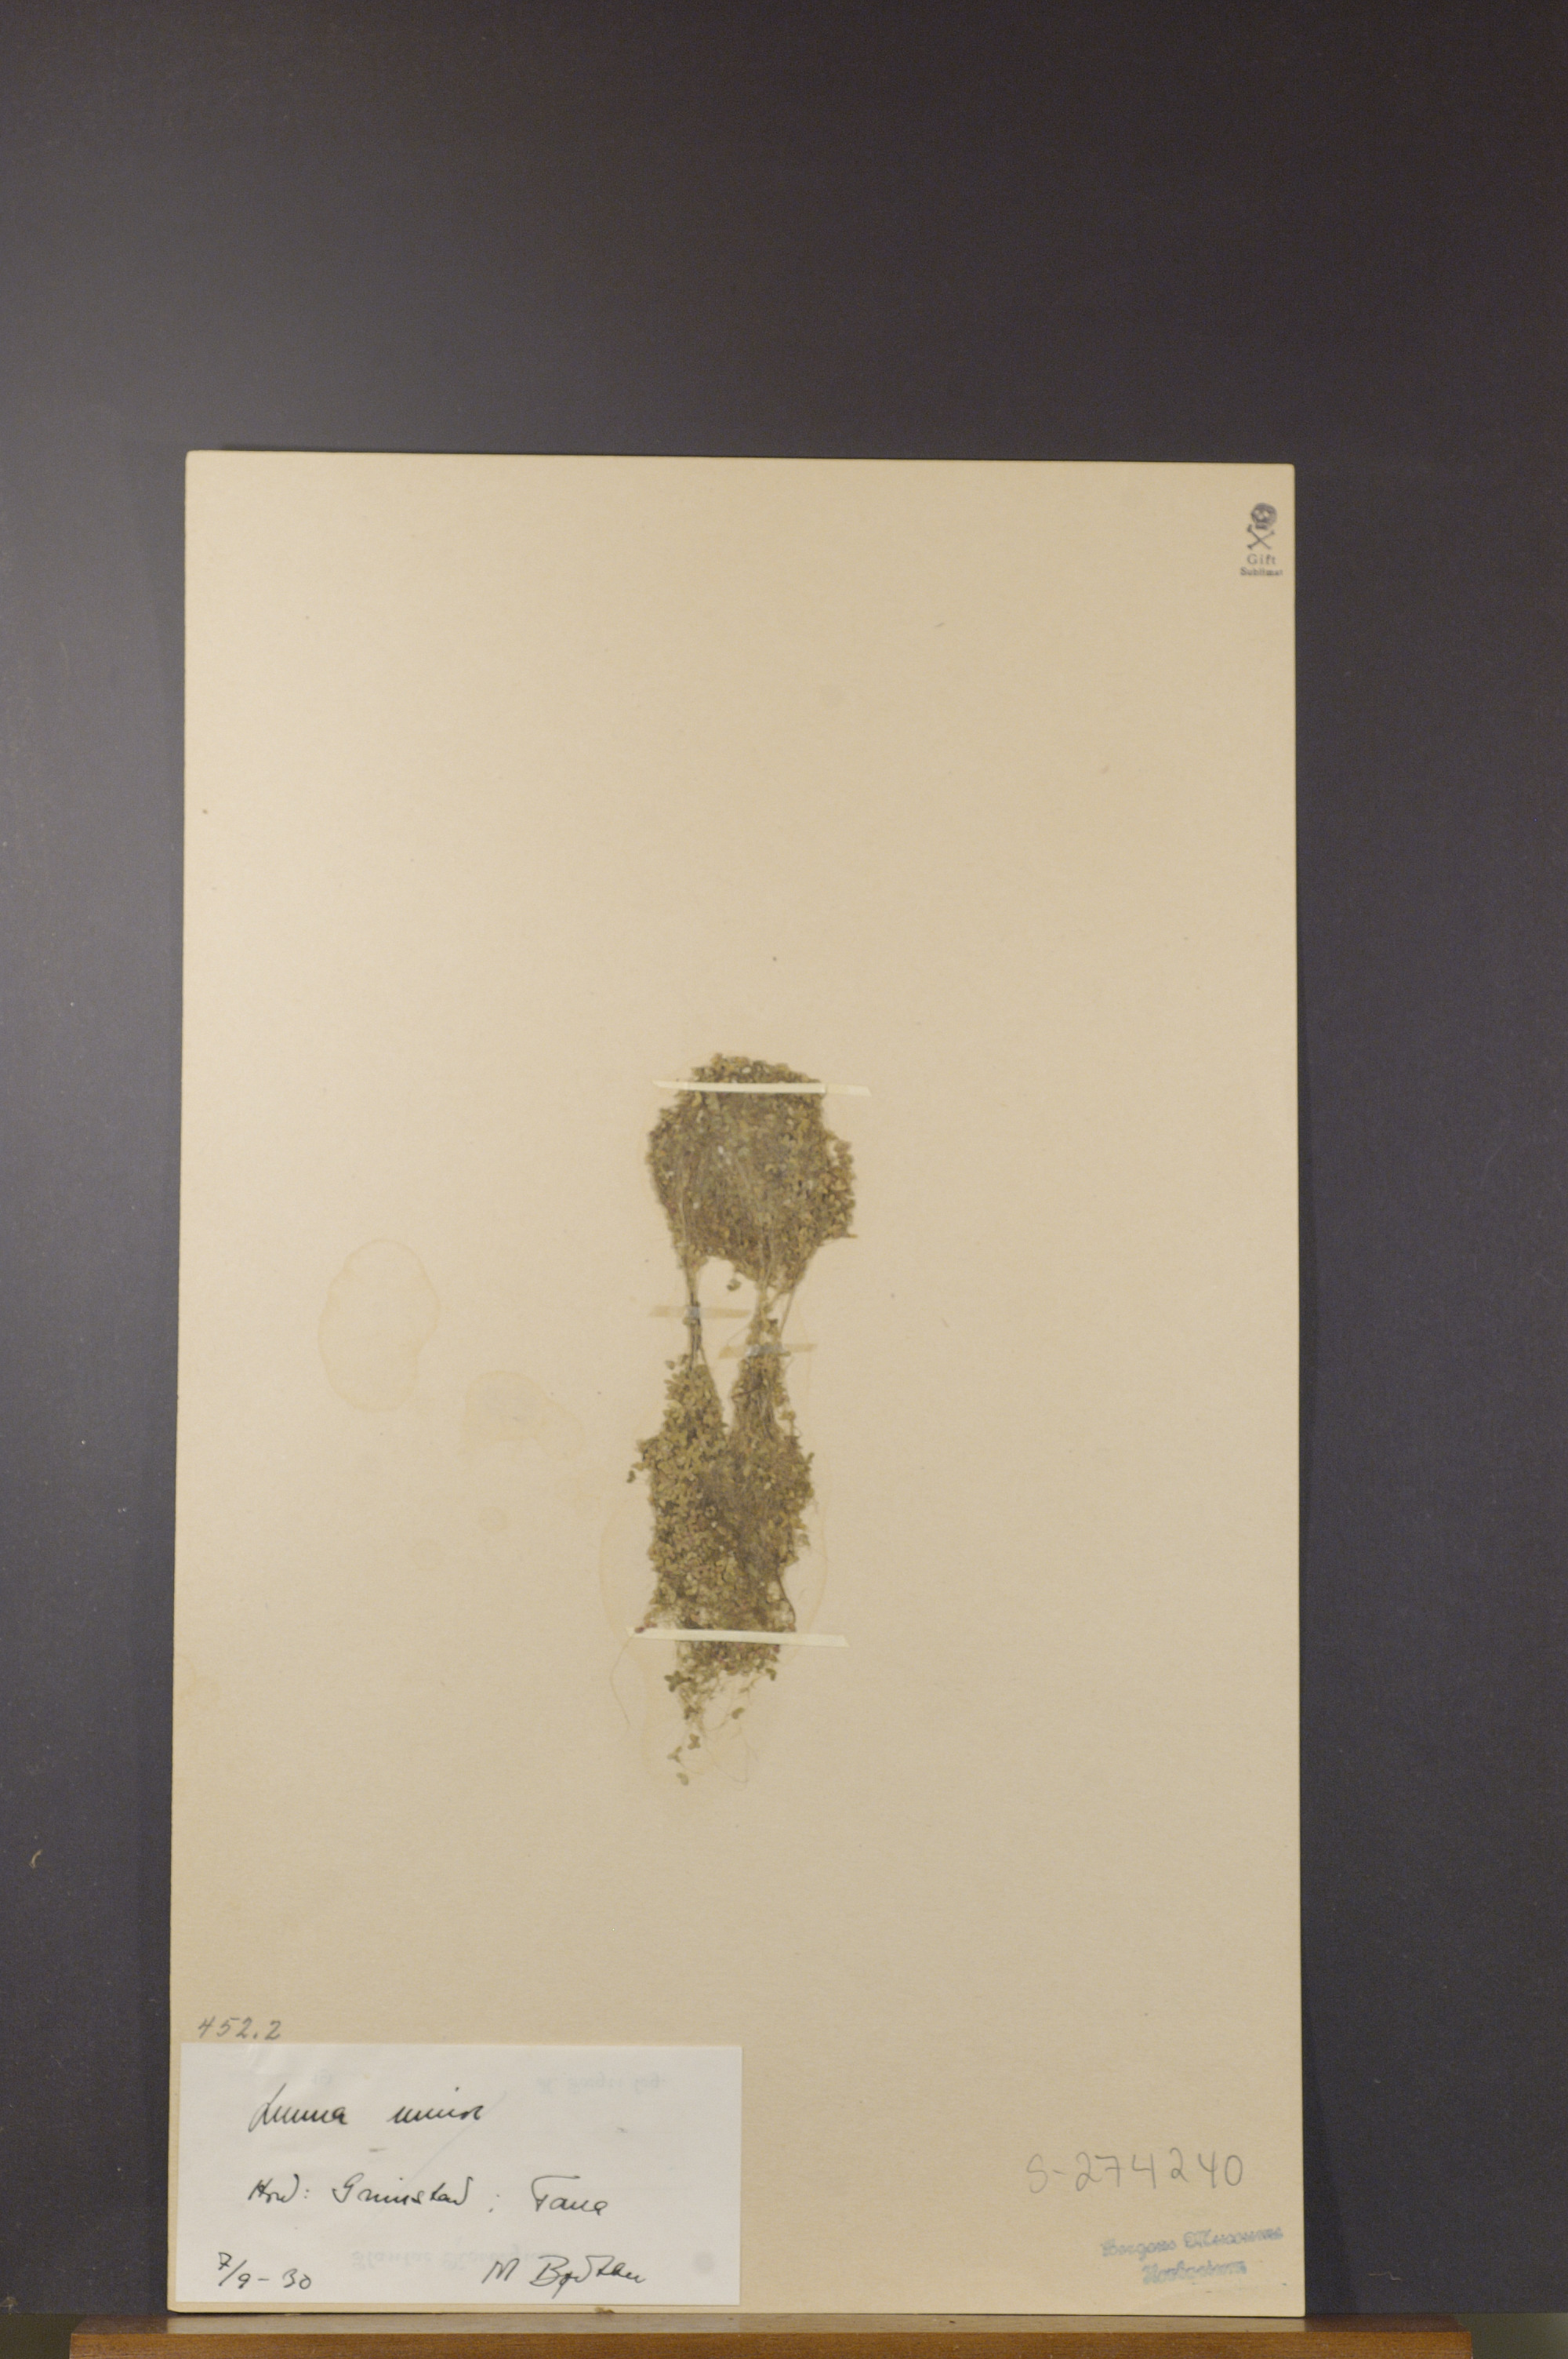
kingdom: Plantae
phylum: Tracheophyta
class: Liliopsida
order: Alismatales
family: Araceae
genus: Lemna
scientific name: Lemna minor
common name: Common duckweed
